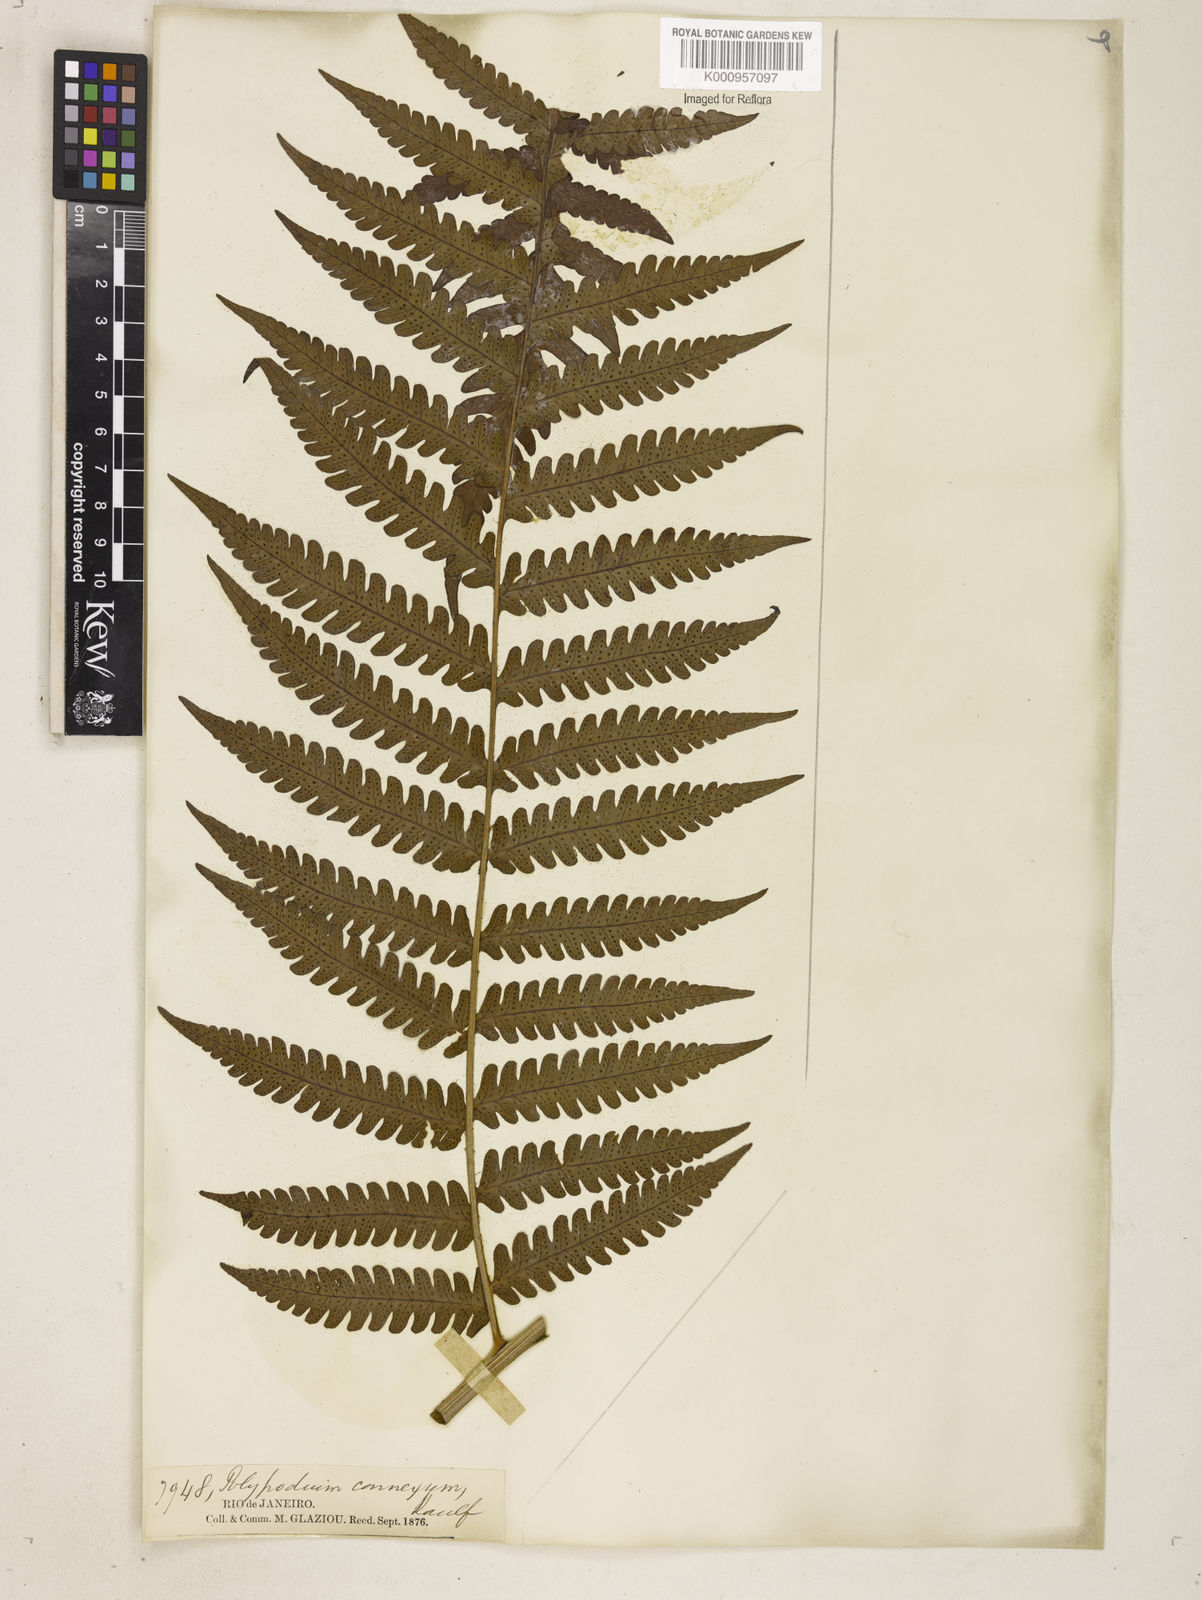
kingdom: Plantae
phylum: Tracheophyta
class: Polypodiopsida
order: Polypodiales
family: Dryopteridaceae
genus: Megalastrum
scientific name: Megalastrum connexum
